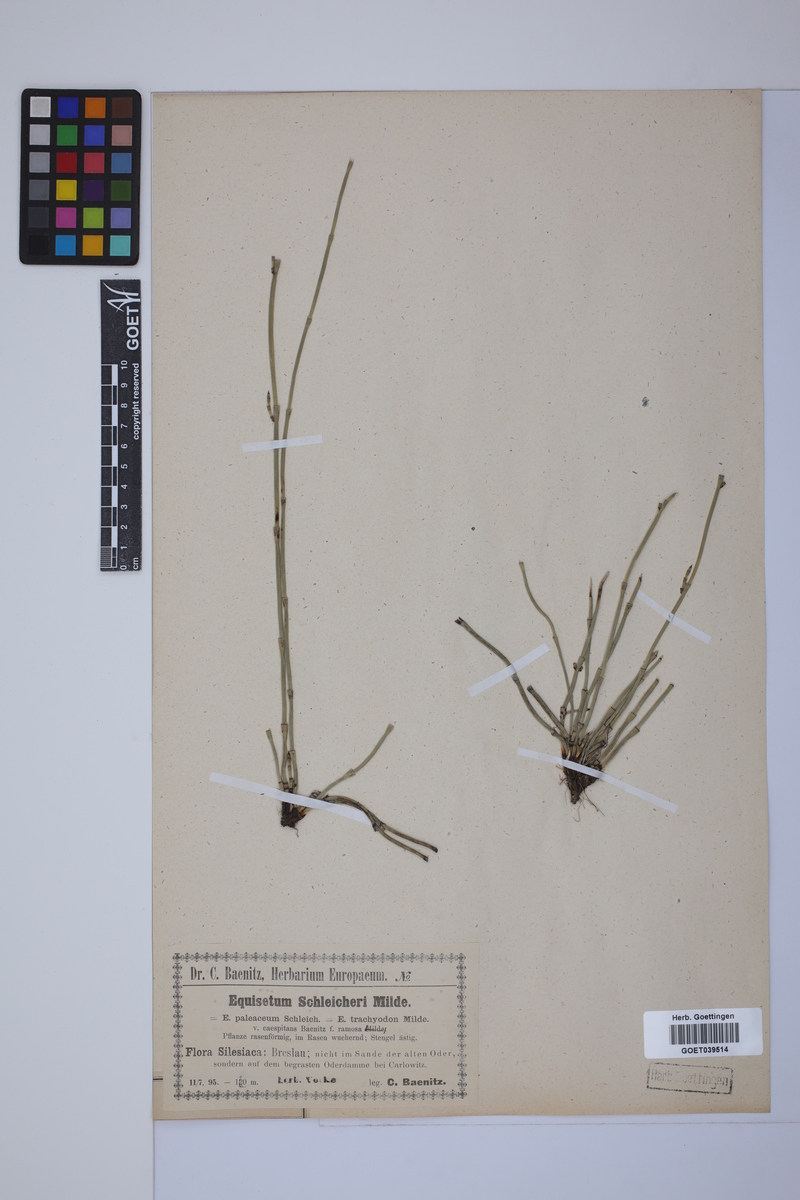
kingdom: Plantae
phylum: Tracheophyta
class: Polypodiopsida
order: Equisetales
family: Equisetaceae
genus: Equisetum
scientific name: Equisetum trachyodon
